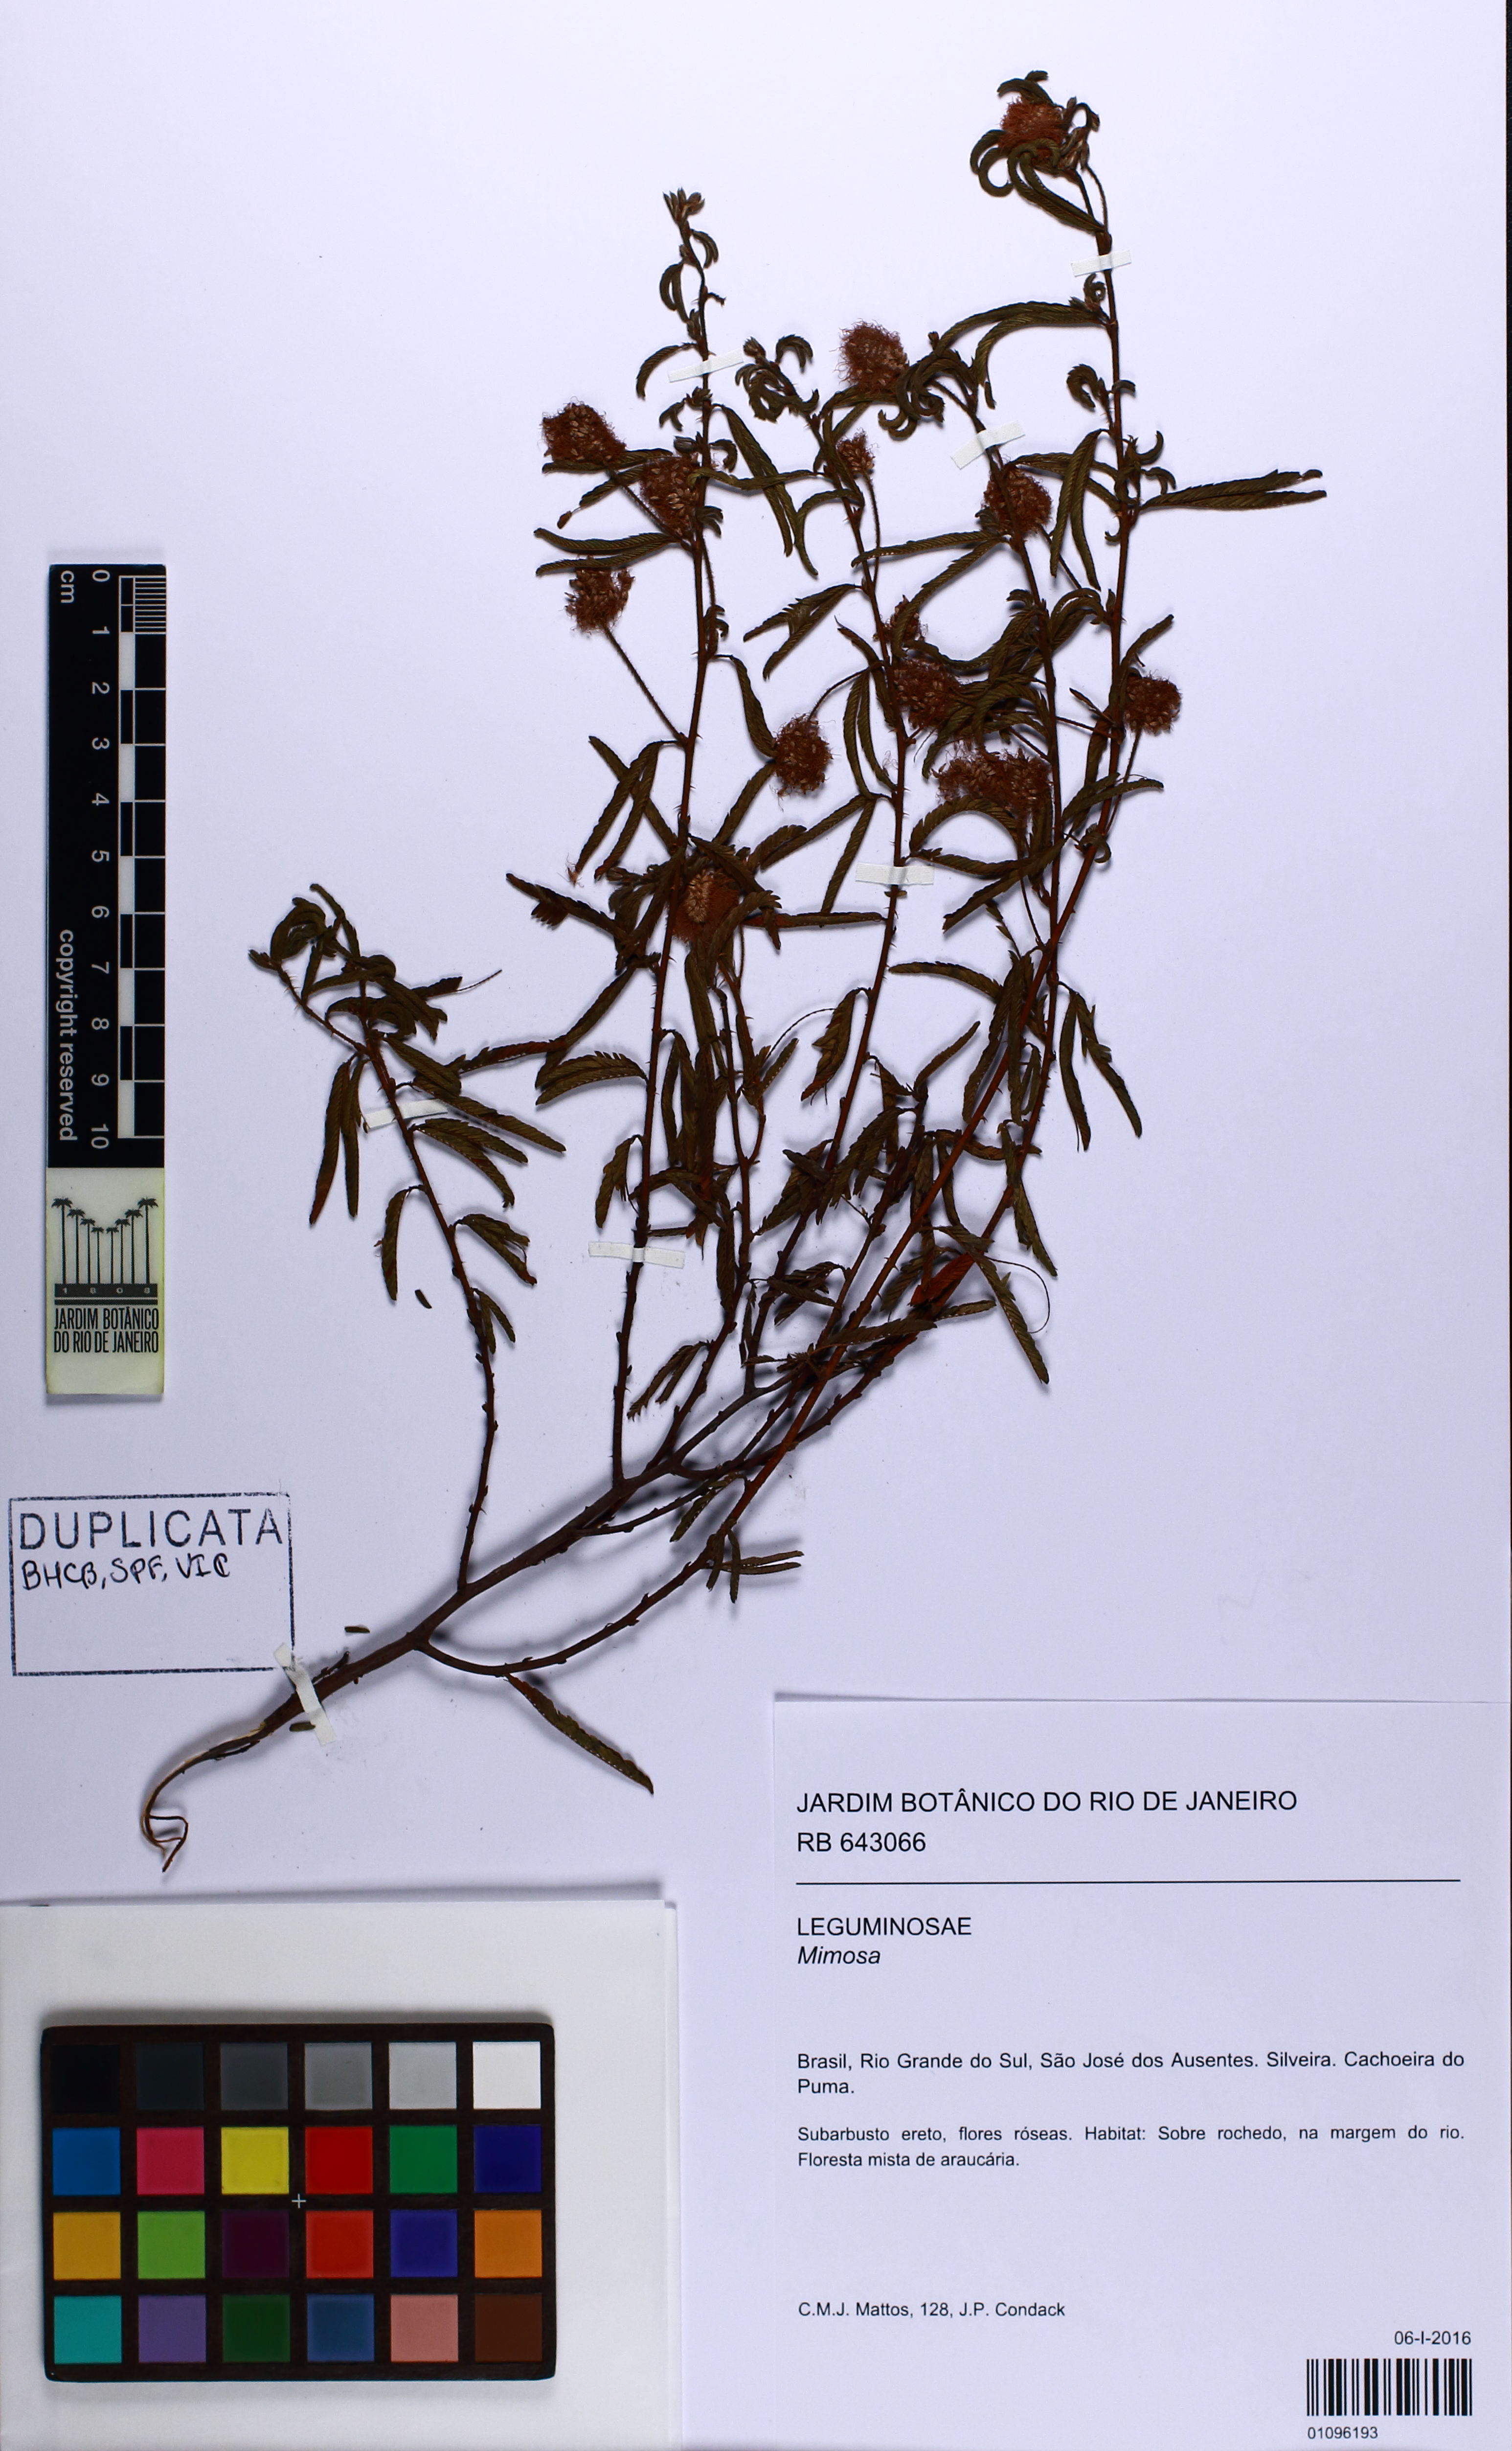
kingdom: Plantae
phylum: Tracheophyta
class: Magnoliopsida
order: Fabales
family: Fabaceae
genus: Mimosa
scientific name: Mimosa
